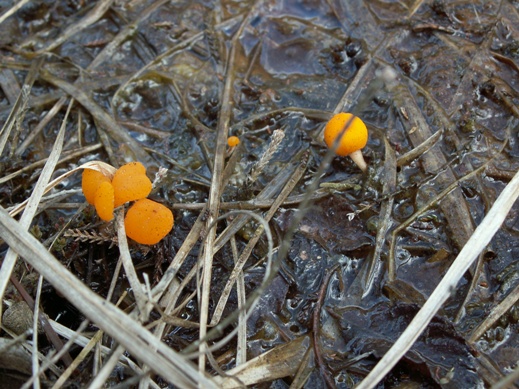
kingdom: Fungi
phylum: Ascomycota
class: Leotiomycetes
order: Helotiales
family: Cenangiaceae
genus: Mitrula
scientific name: Mitrula paludosa
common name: gul nøkketunge
